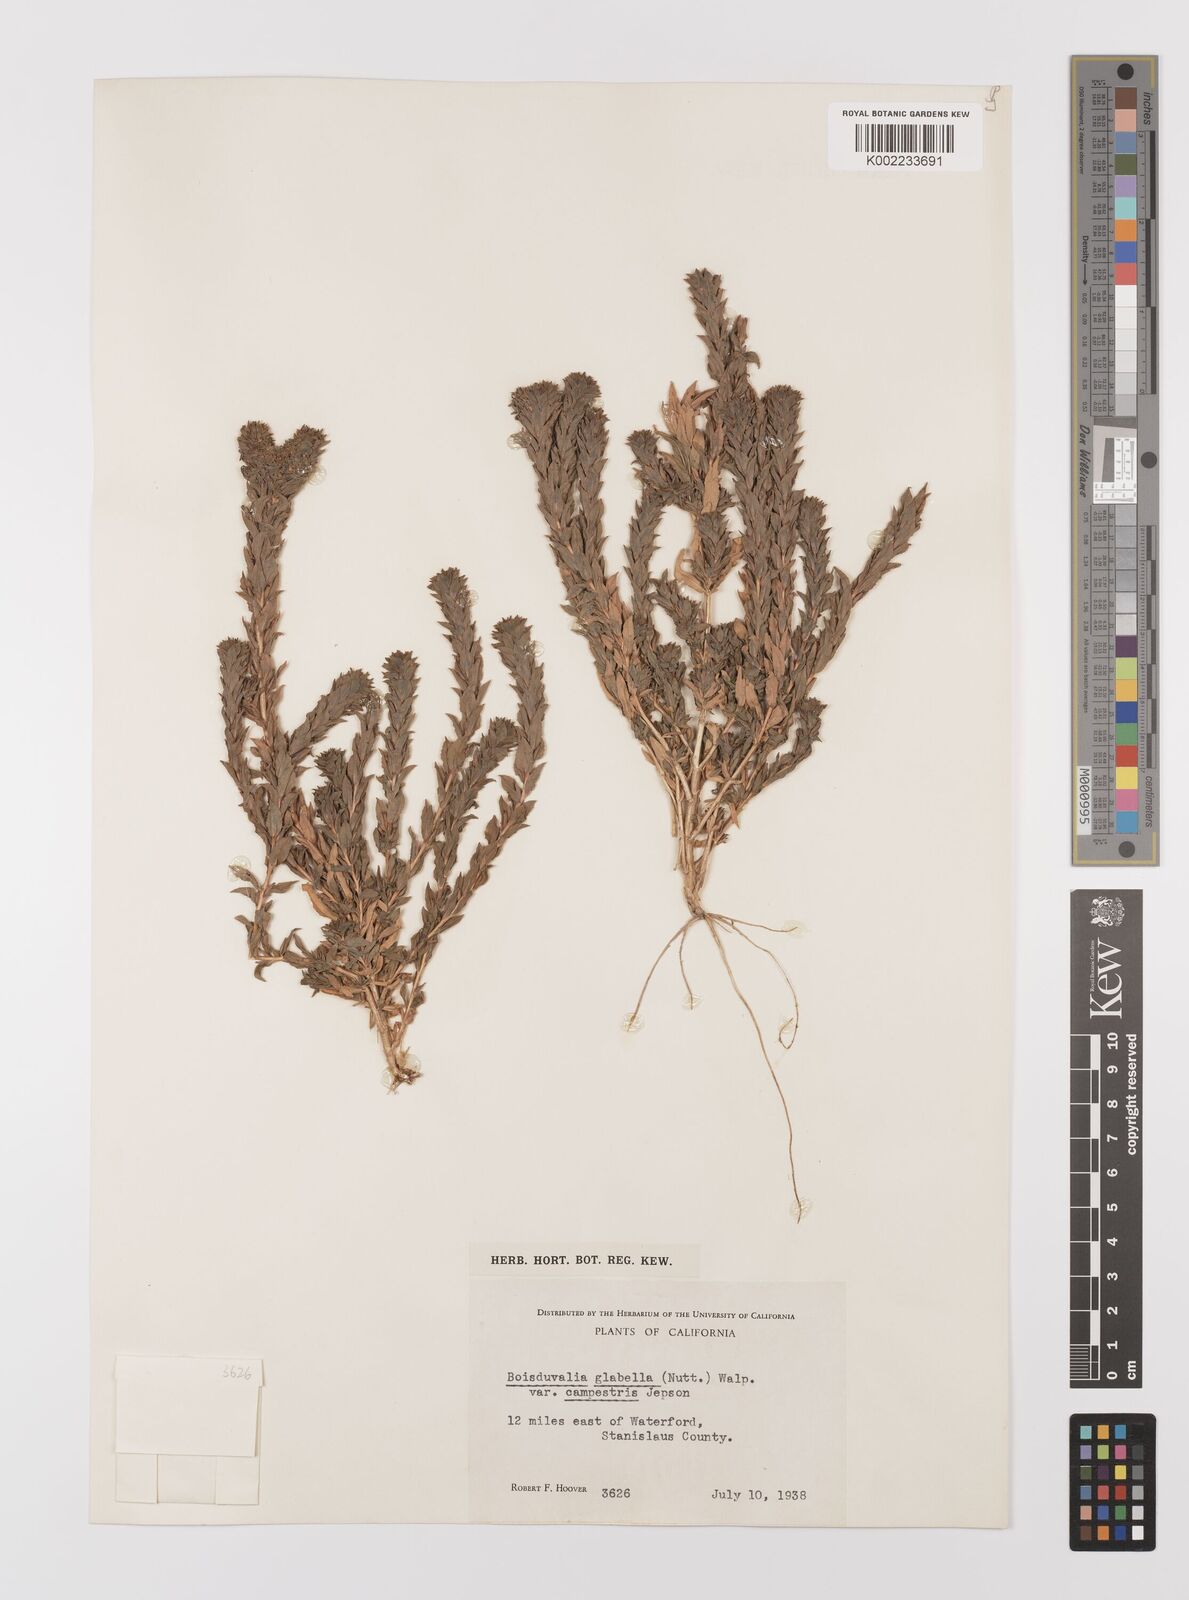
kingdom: Plantae
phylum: Tracheophyta
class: Magnoliopsida
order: Myrtales
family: Onagraceae
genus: Epilobium
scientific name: Epilobium campestre
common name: Smooth spike-primrose
